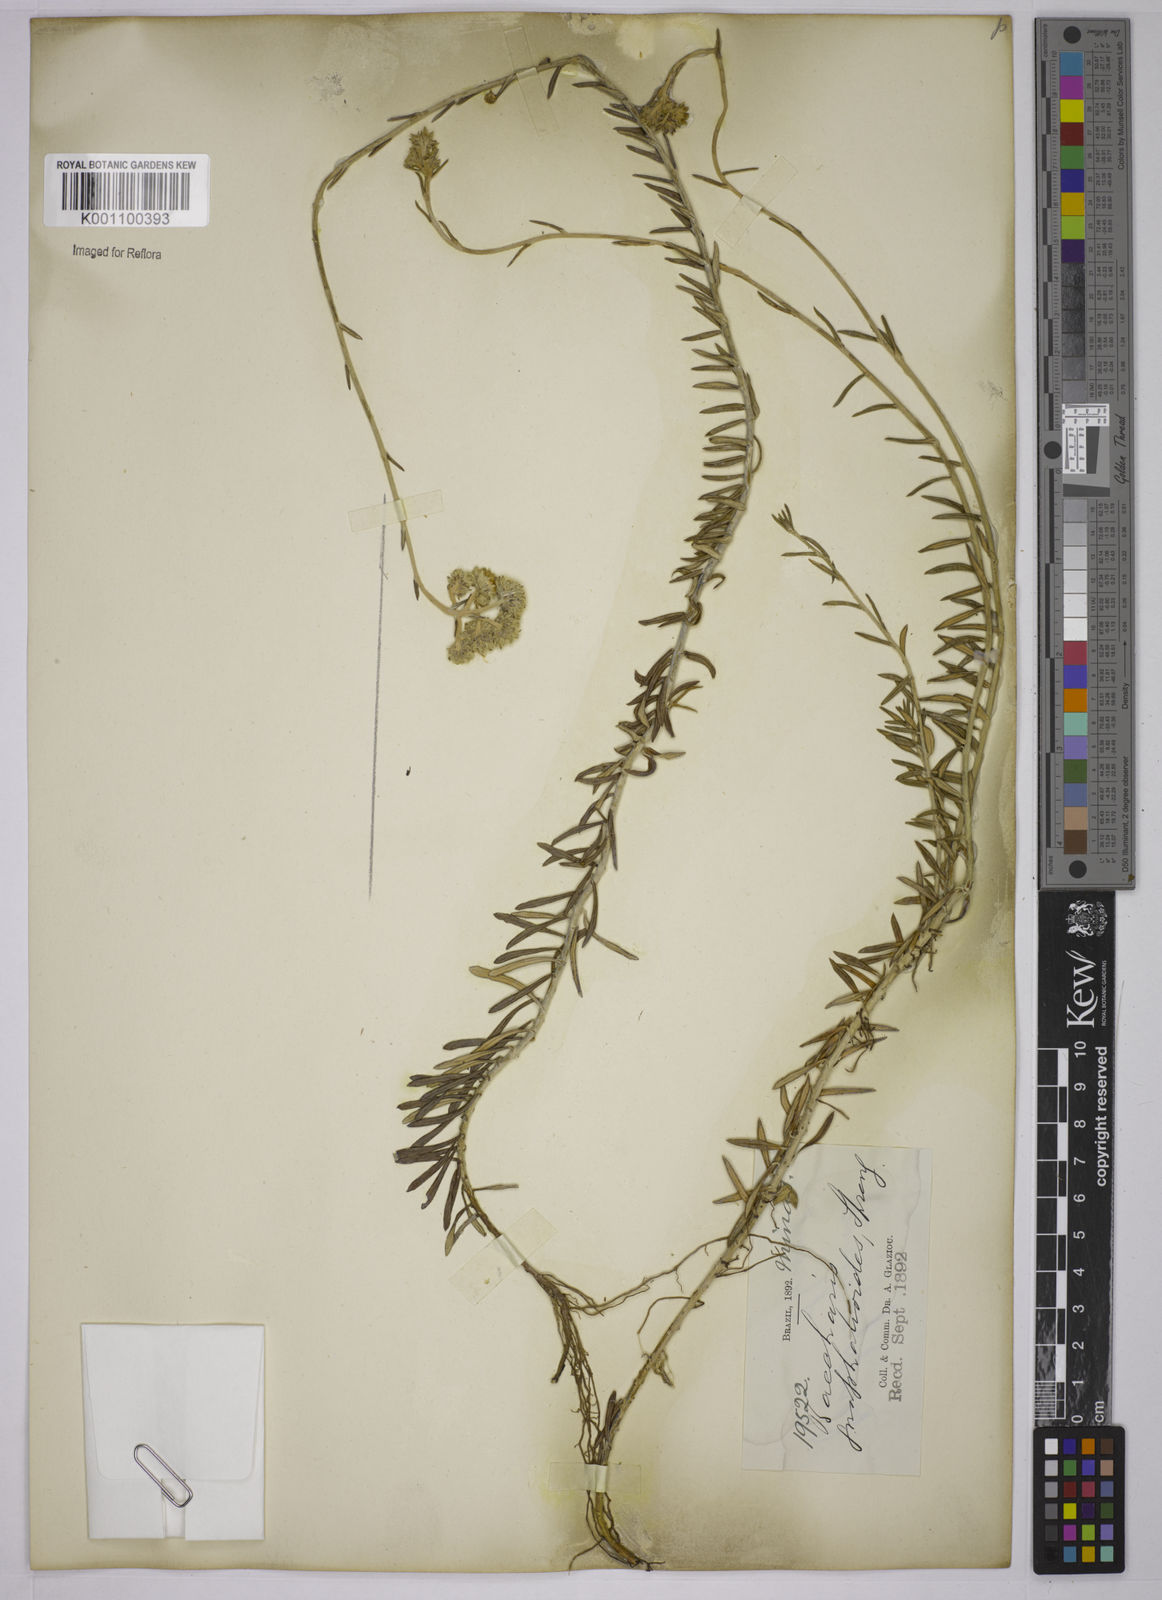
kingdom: Plantae
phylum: Tracheophyta
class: Magnoliopsida
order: Asterales
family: Asteraceae
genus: Lucilia
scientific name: Lucilia acutifolia
